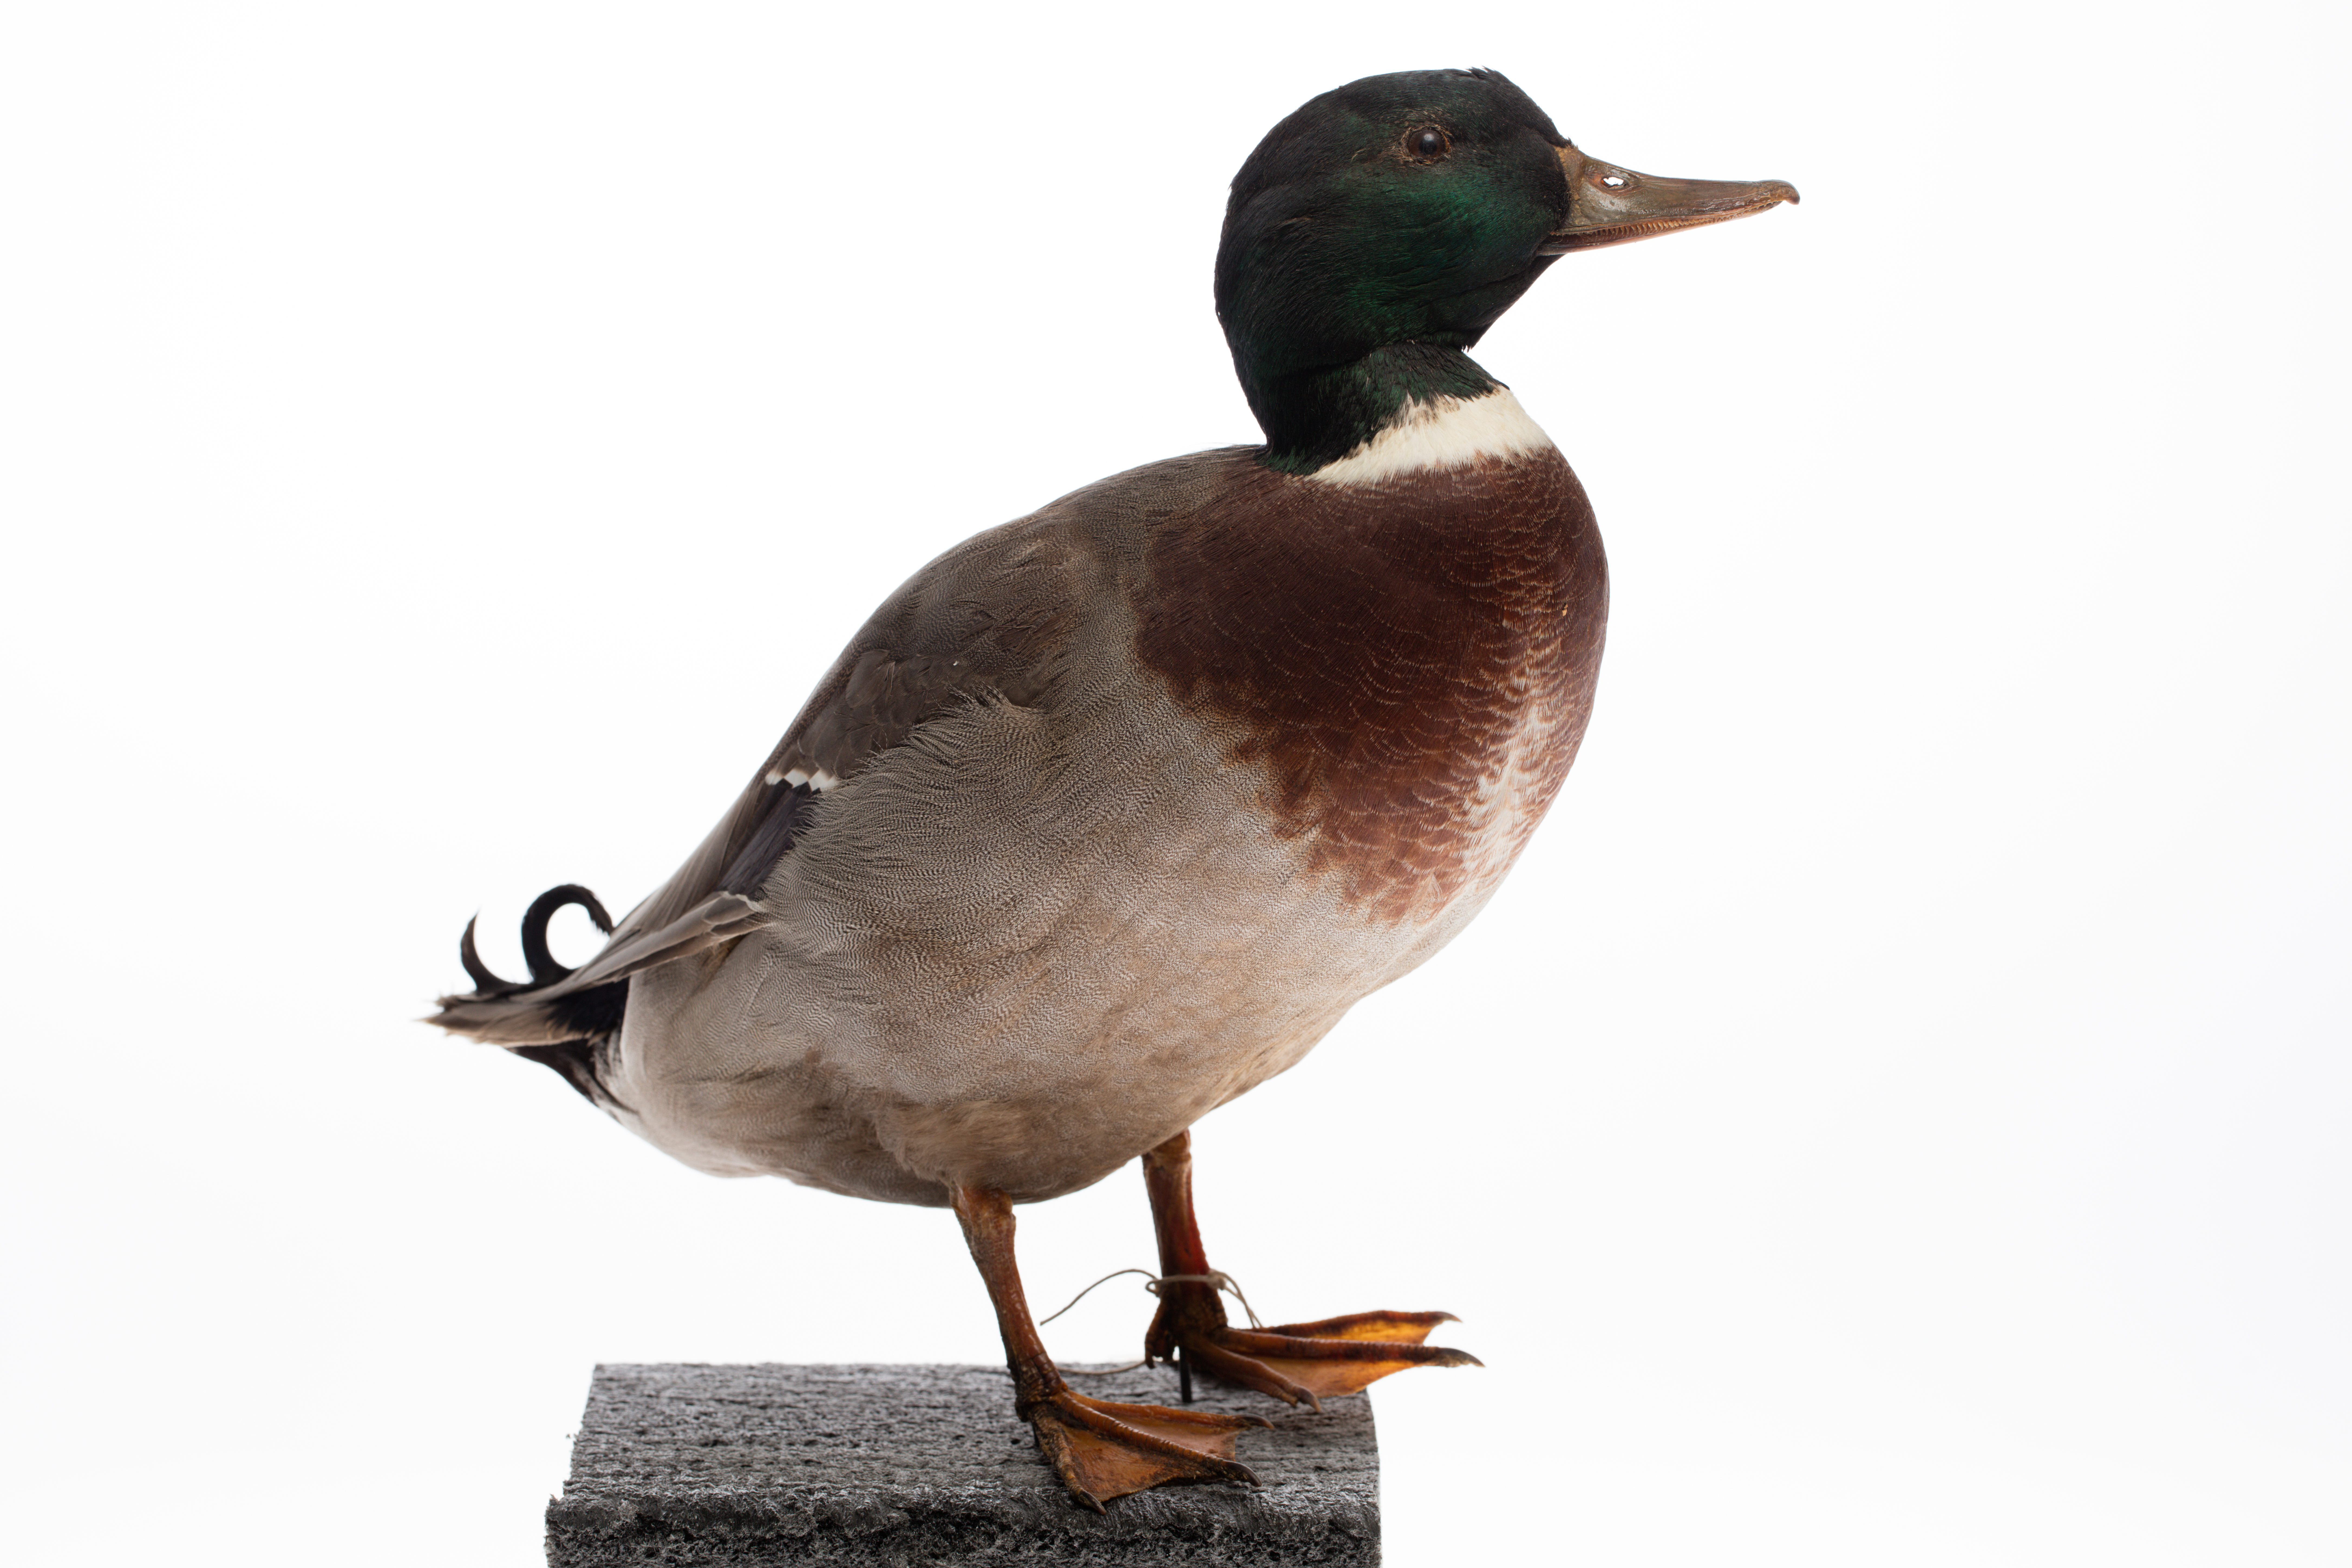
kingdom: Animalia
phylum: Chordata
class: Aves
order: Anseriformes
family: Anatidae
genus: Anas
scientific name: Anas platyrhynchos
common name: Mallard
